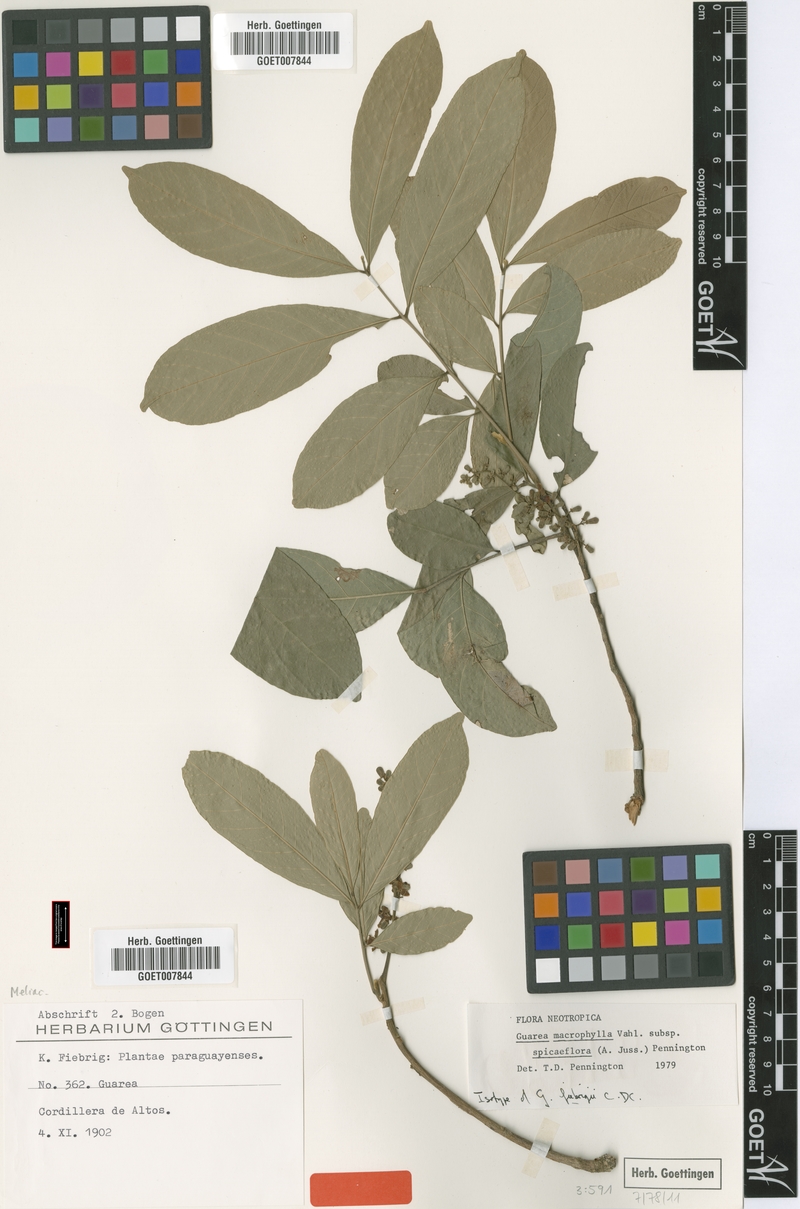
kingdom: Plantae
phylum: Tracheophyta
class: Magnoliopsida
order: Sapindales
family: Meliaceae
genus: Guarea
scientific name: Guarea macrophylla
